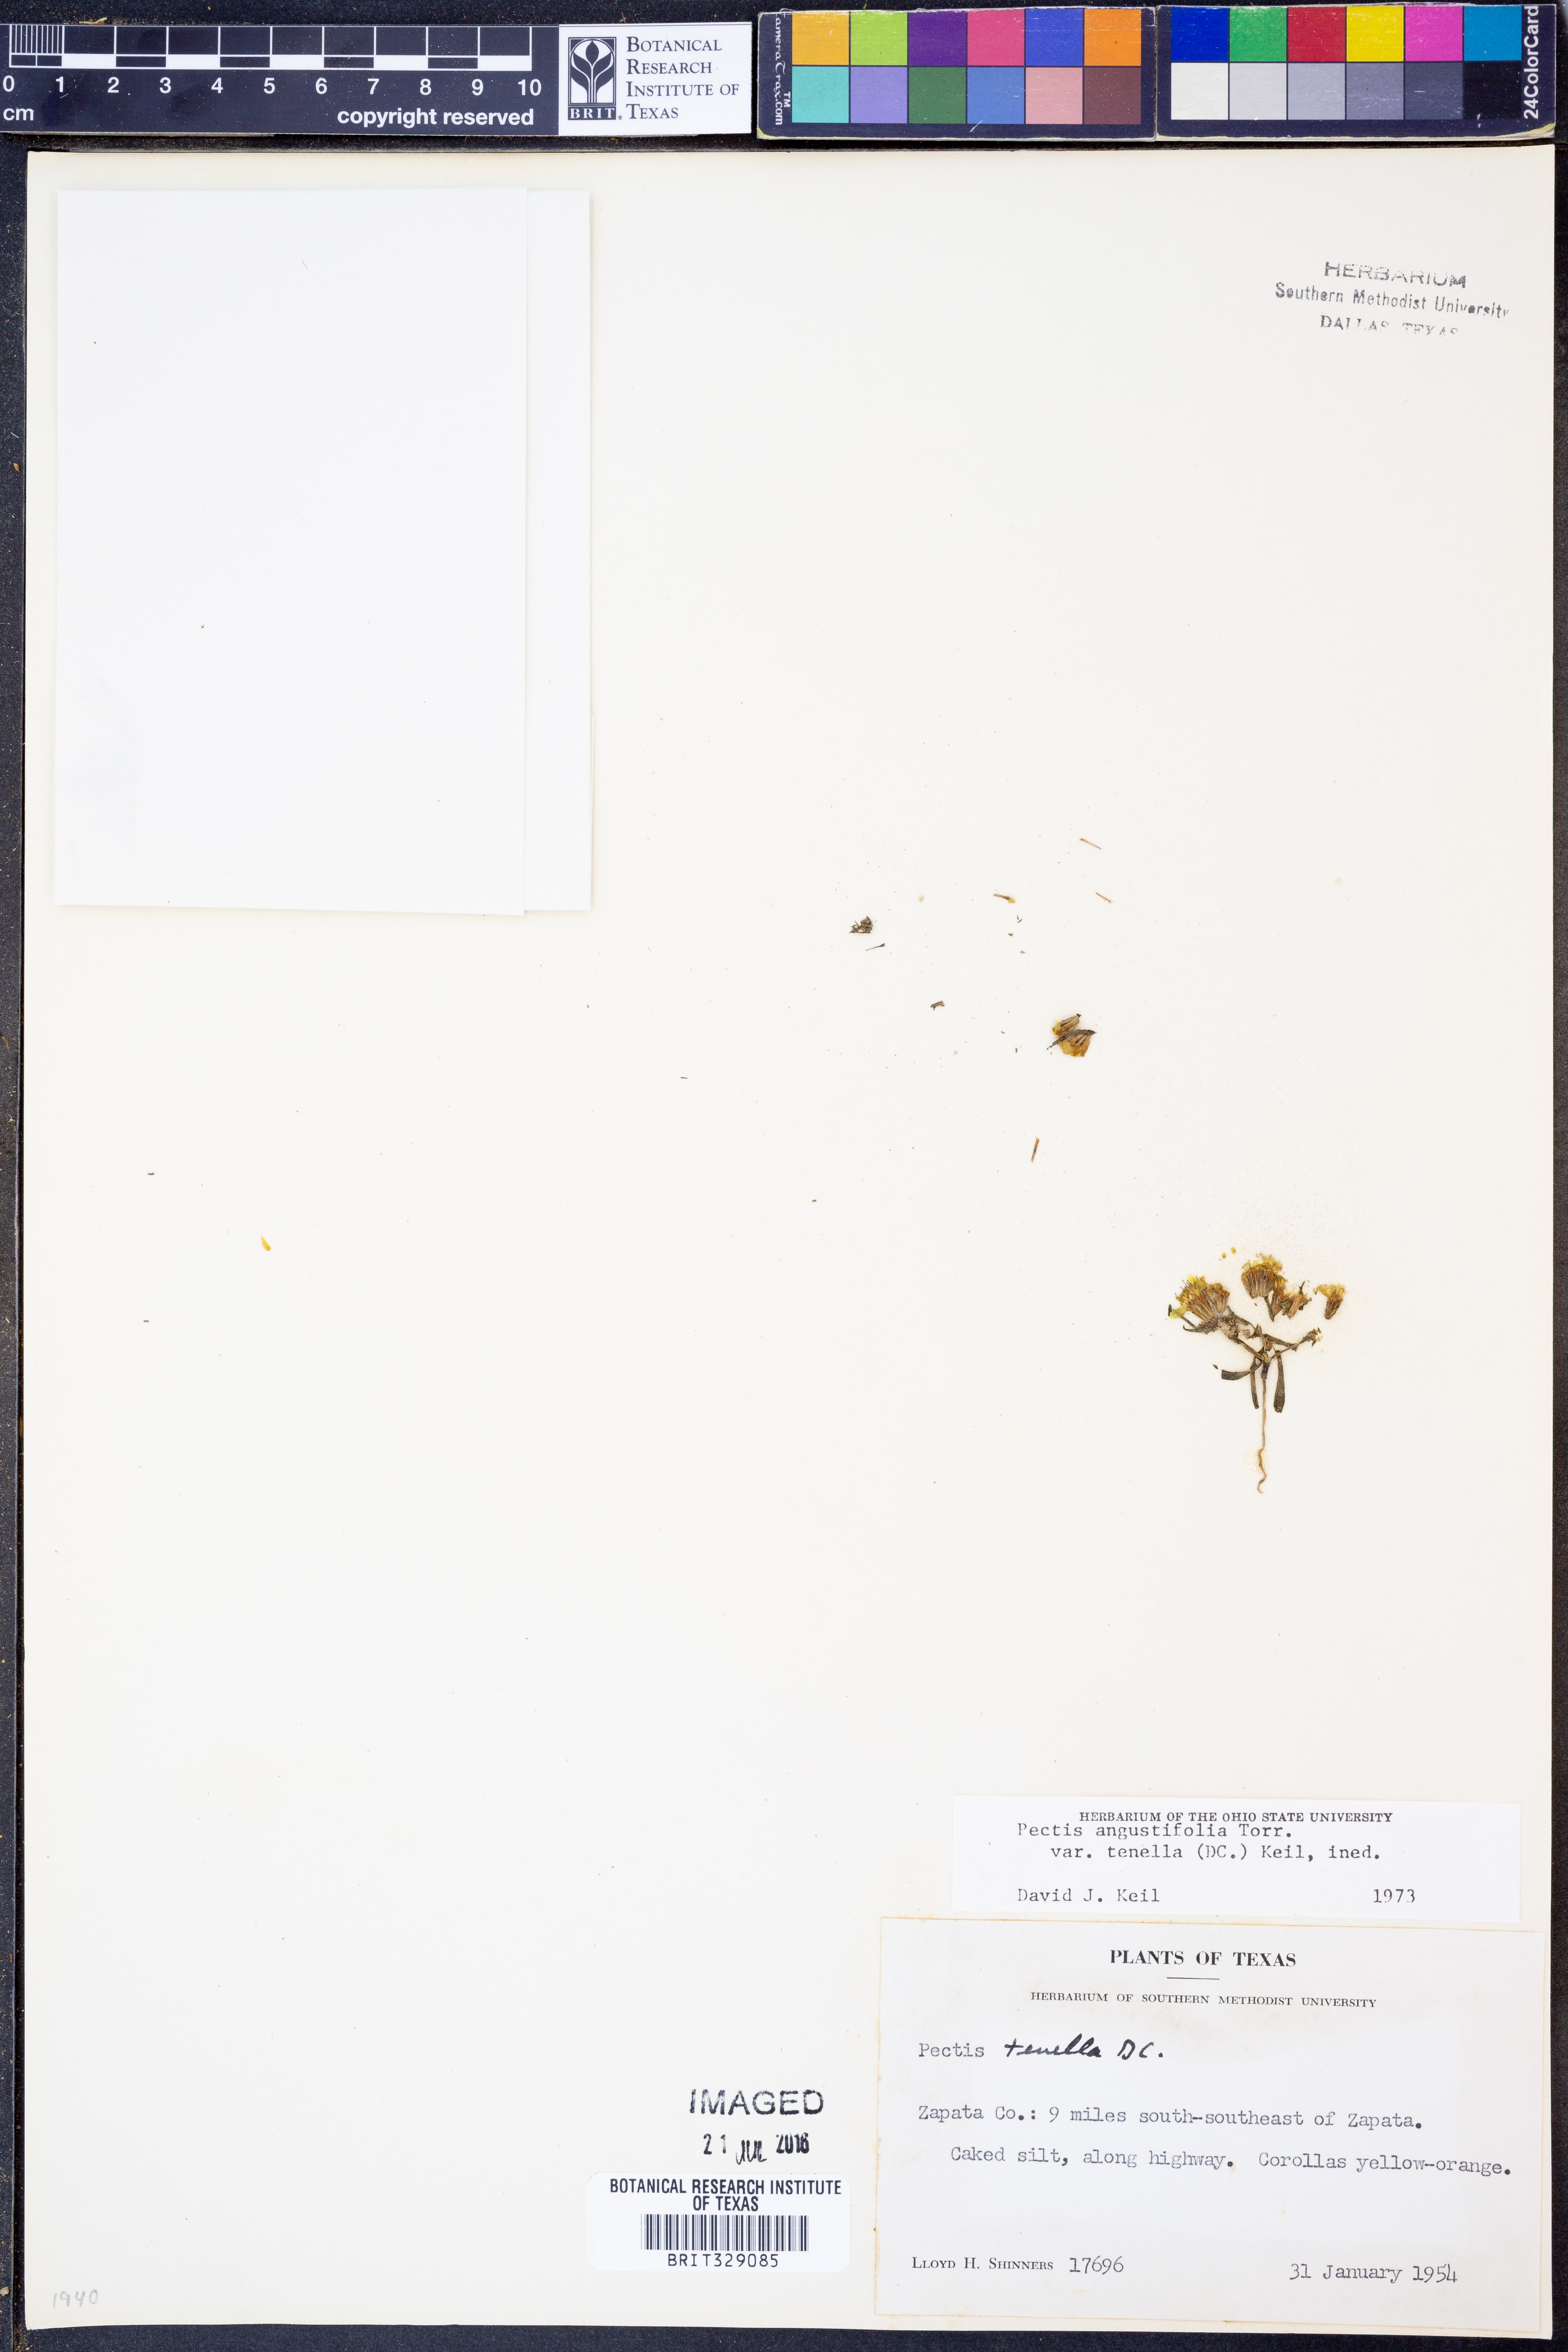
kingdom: Plantae
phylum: Tracheophyta
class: Magnoliopsida
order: Asterales
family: Asteraceae
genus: Pectis
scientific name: Pectis angustifolia
